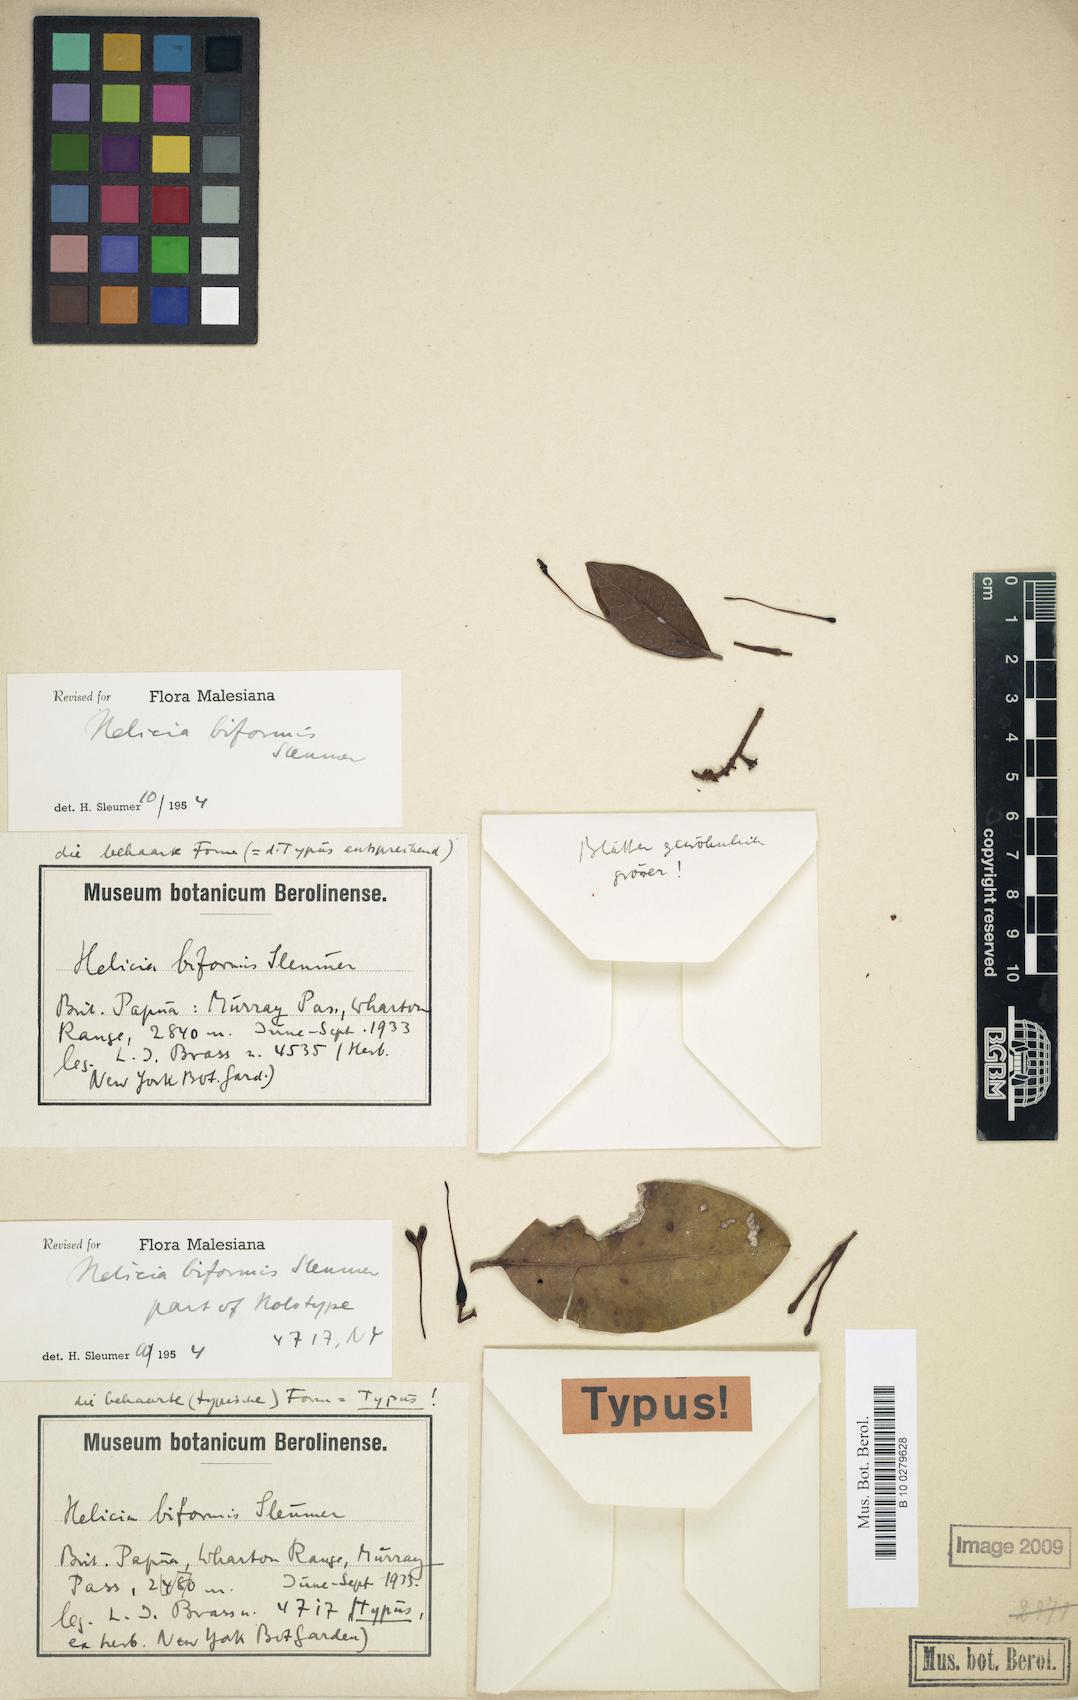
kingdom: Plantae
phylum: Tracheophyta
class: Magnoliopsida
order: Proteales
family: Proteaceae
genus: Helicia
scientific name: Helicia hypoglauca
